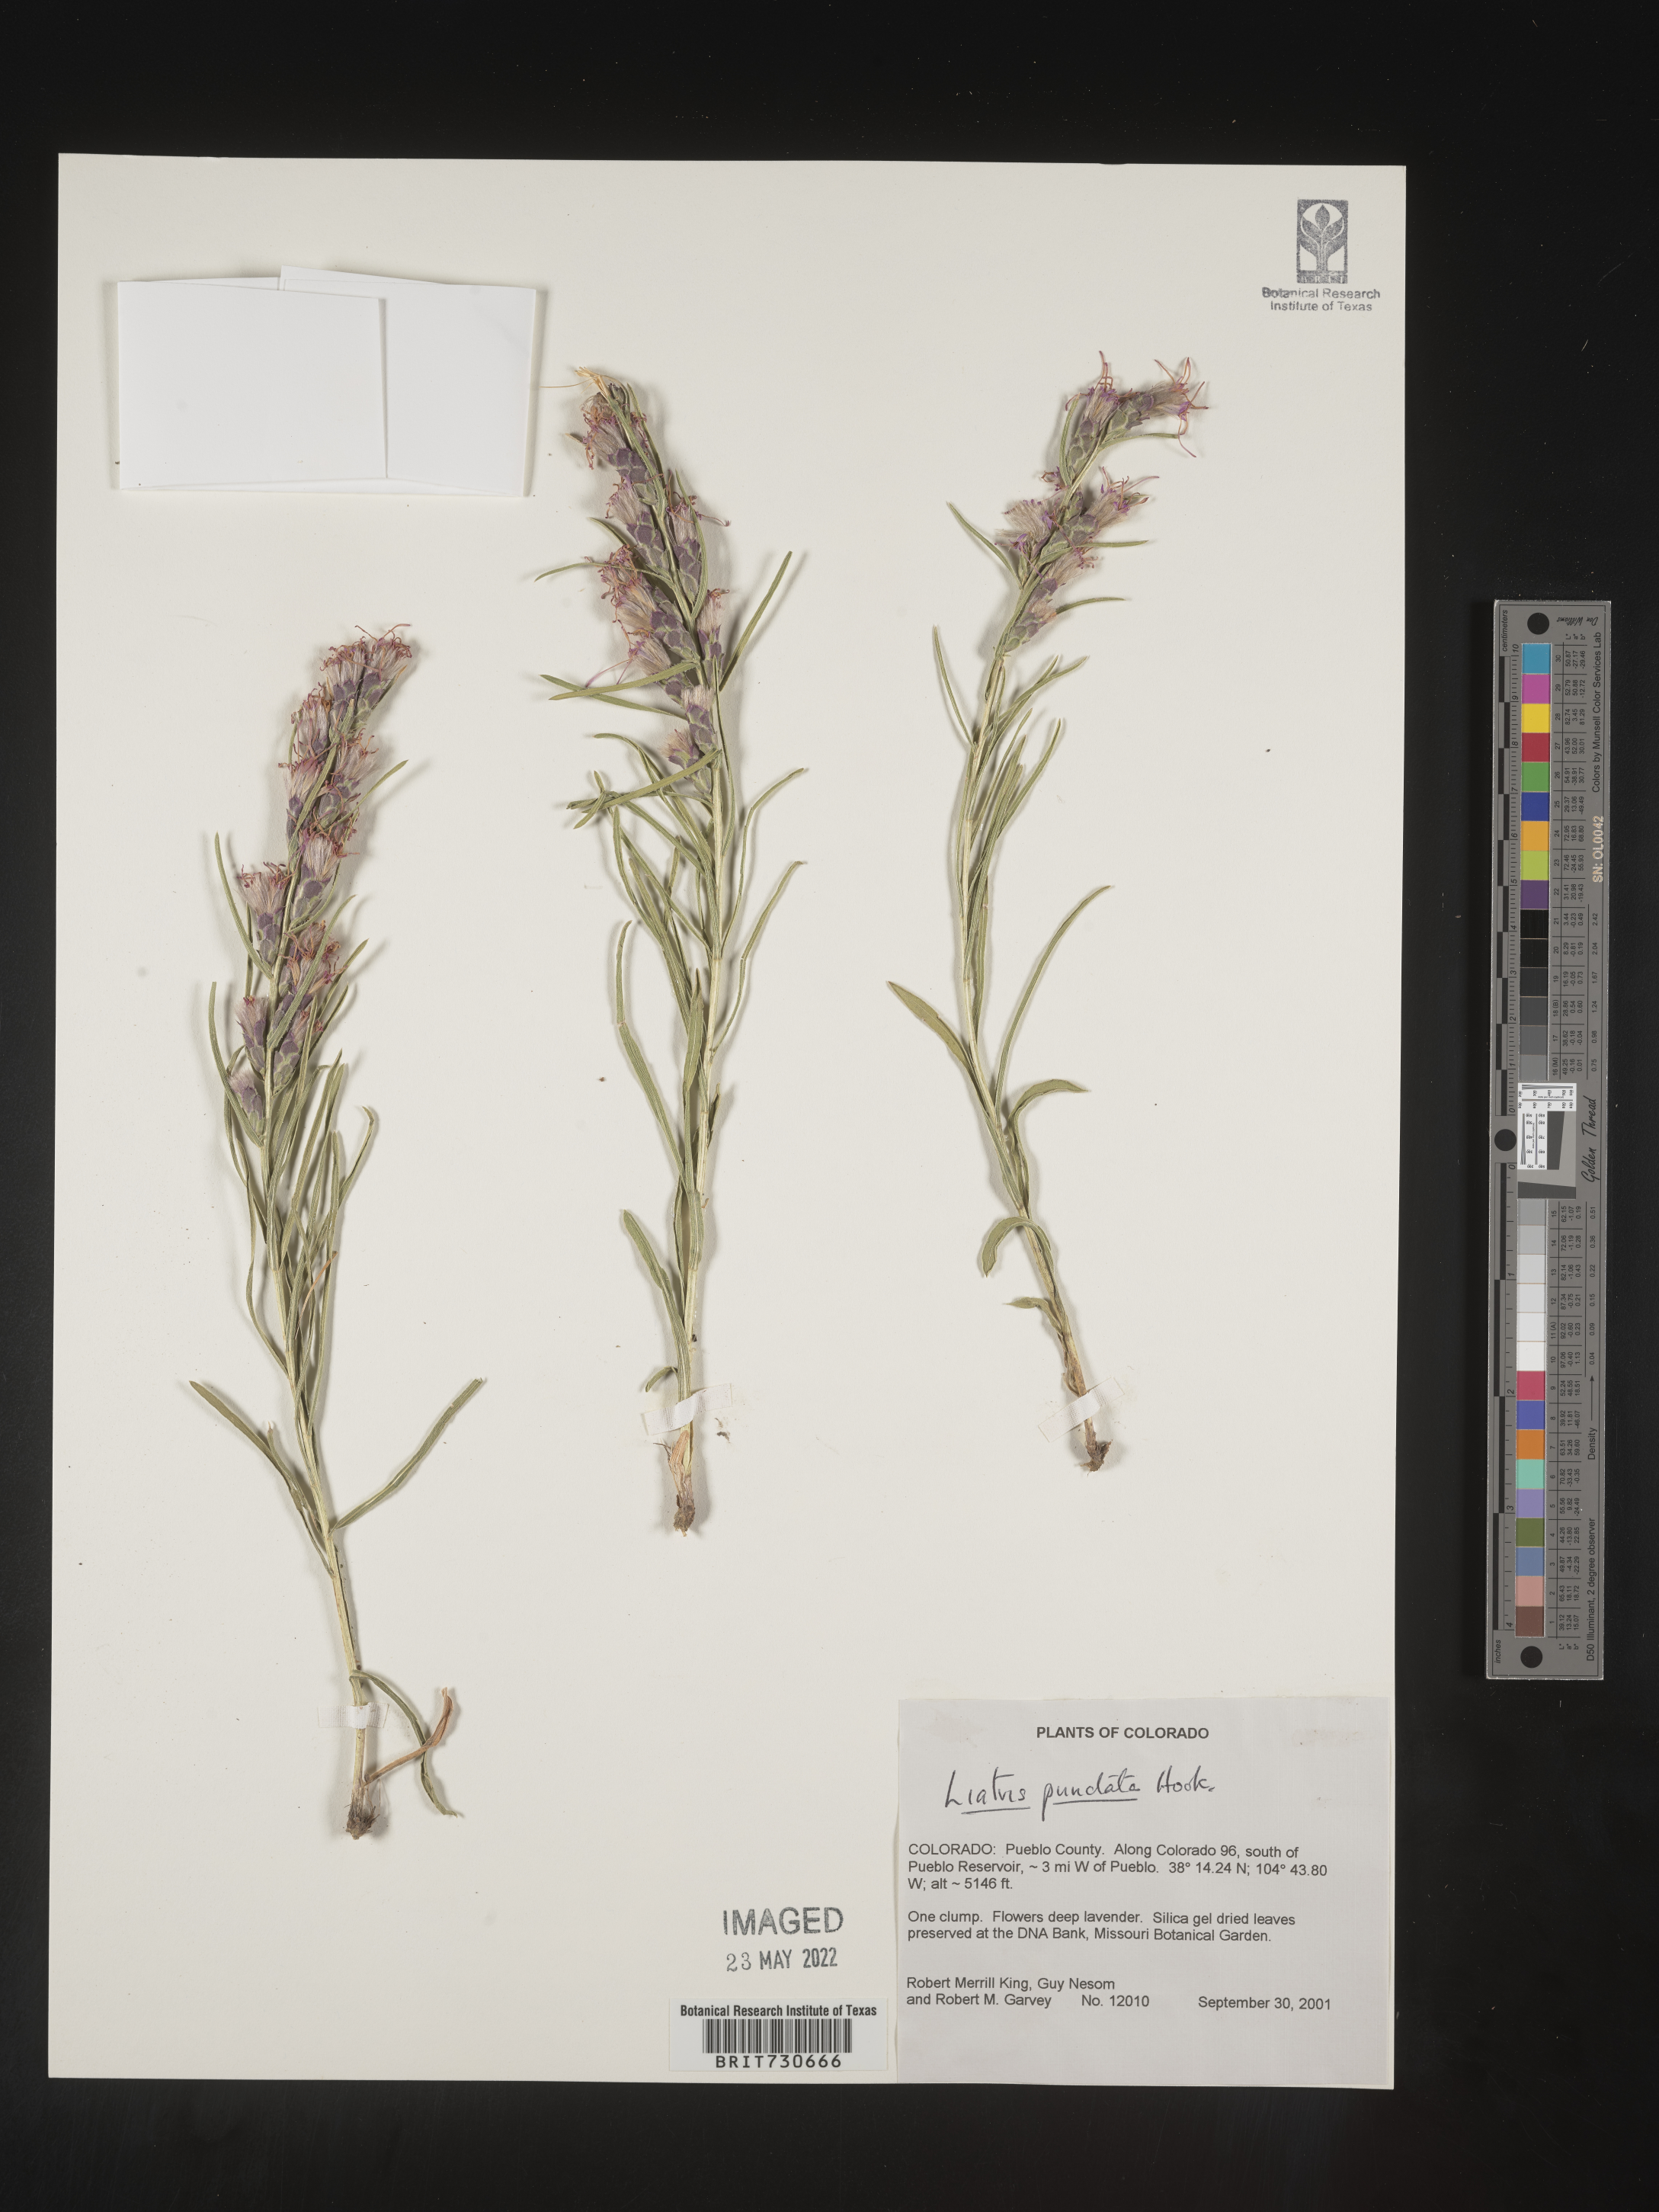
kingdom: Plantae
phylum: Tracheophyta
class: Magnoliopsida
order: Asterales
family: Asteraceae
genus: Liatris
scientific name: Liatris punctata
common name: Dotted gayfeather
